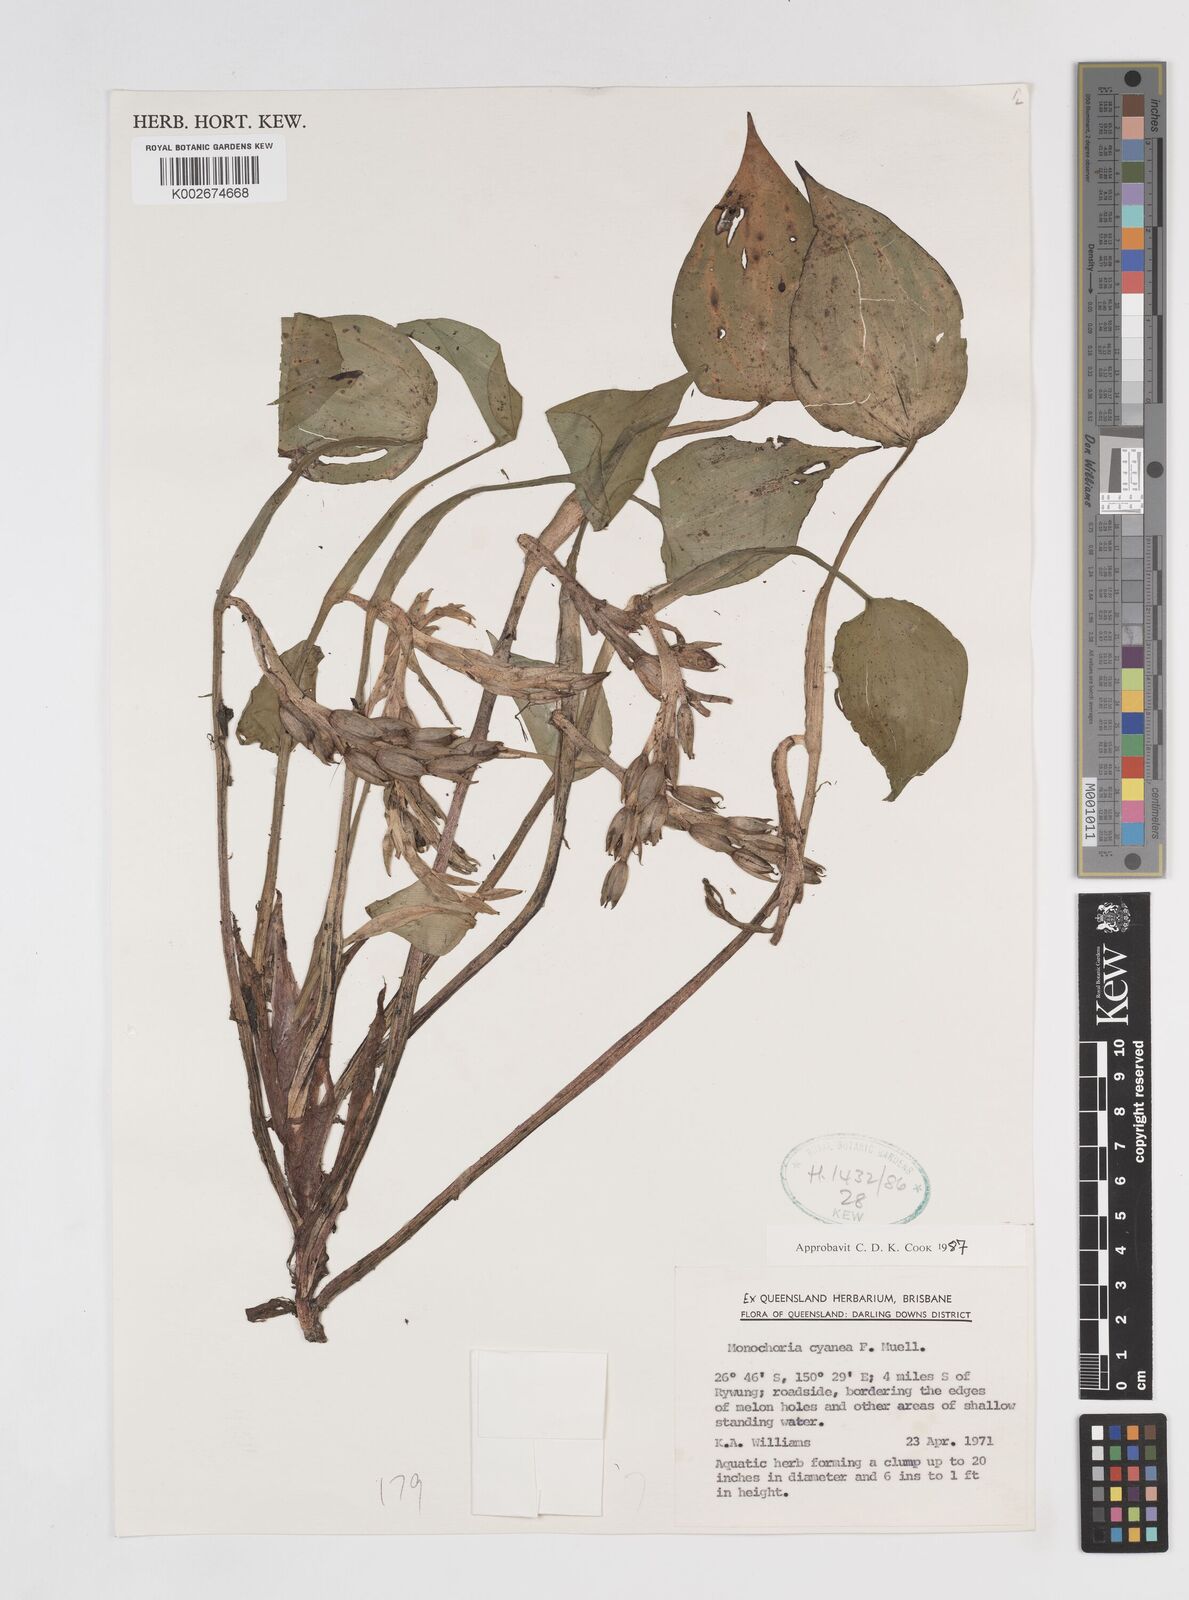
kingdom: Plantae
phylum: Tracheophyta
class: Liliopsida
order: Commelinales
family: Pontederiaceae
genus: Pontederia
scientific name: Pontederia cyanea
